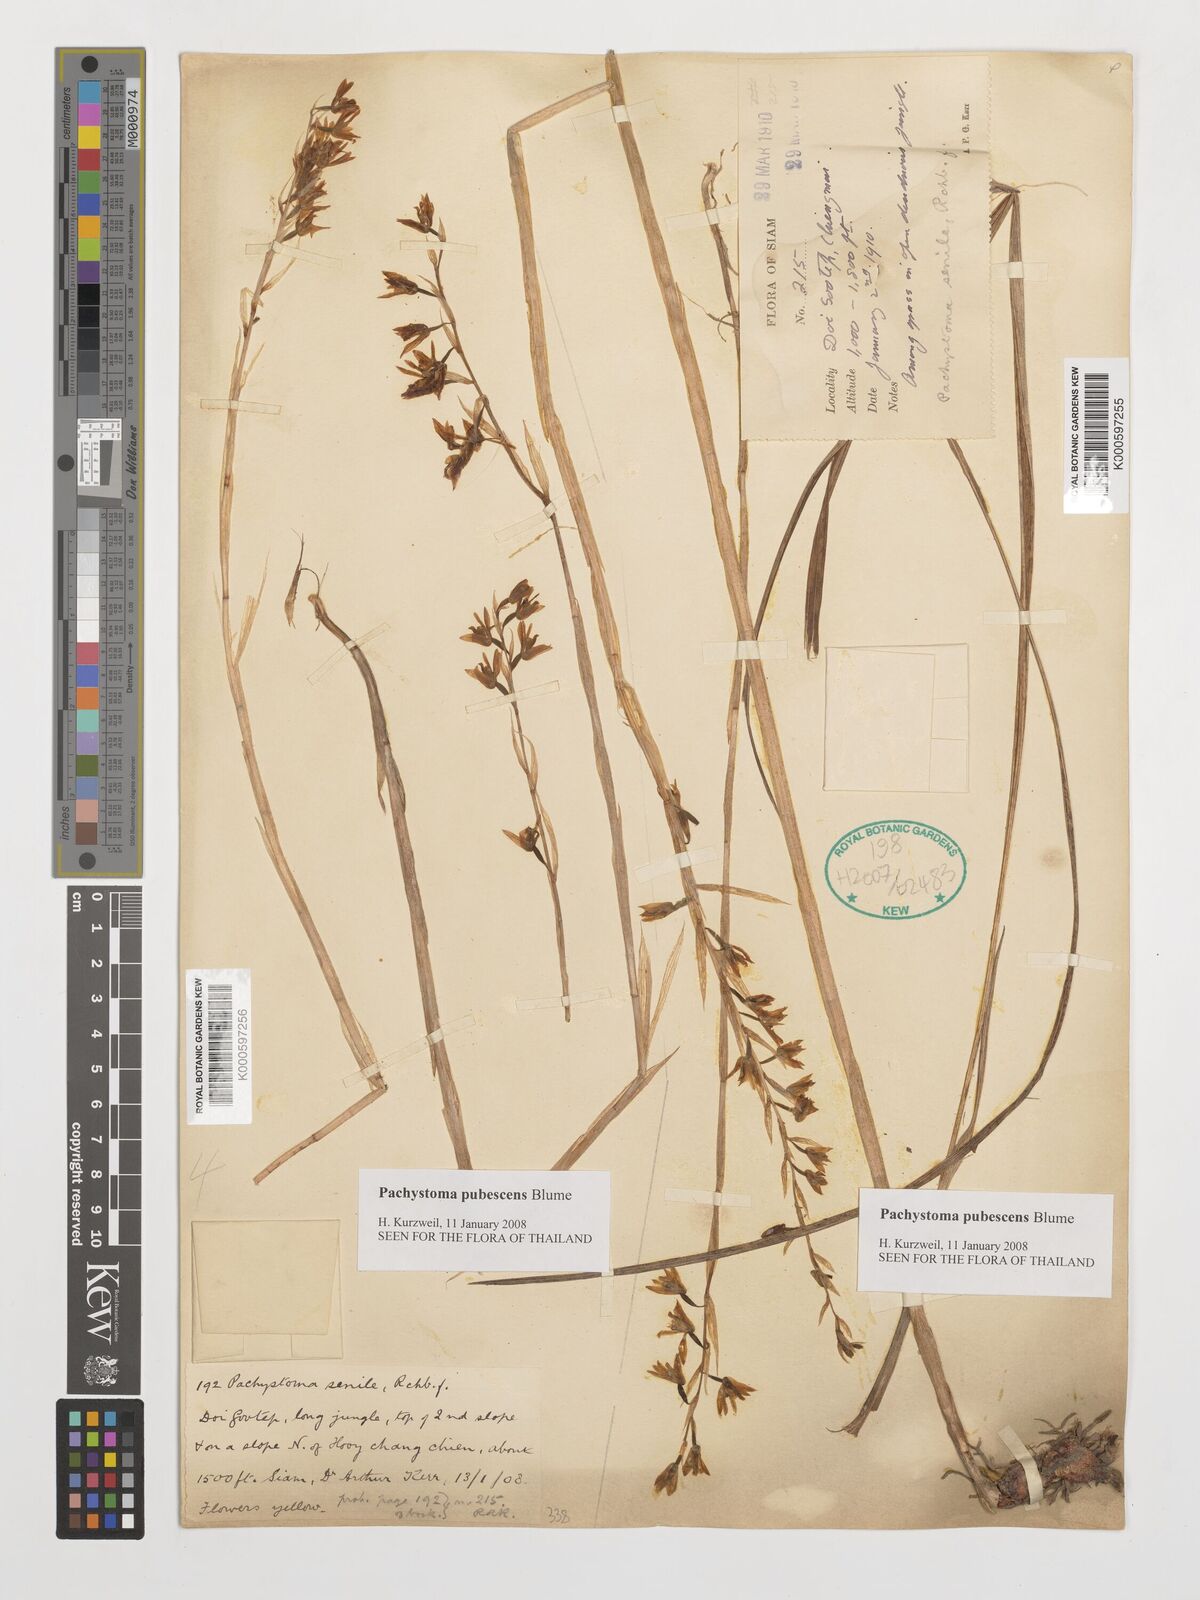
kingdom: Plantae
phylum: Tracheophyta
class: Liliopsida
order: Asparagales
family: Orchidaceae
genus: Pachystoma
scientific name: Pachystoma pubescens
